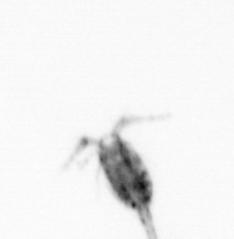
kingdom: Animalia
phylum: Arthropoda
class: Copepoda
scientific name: Copepoda
